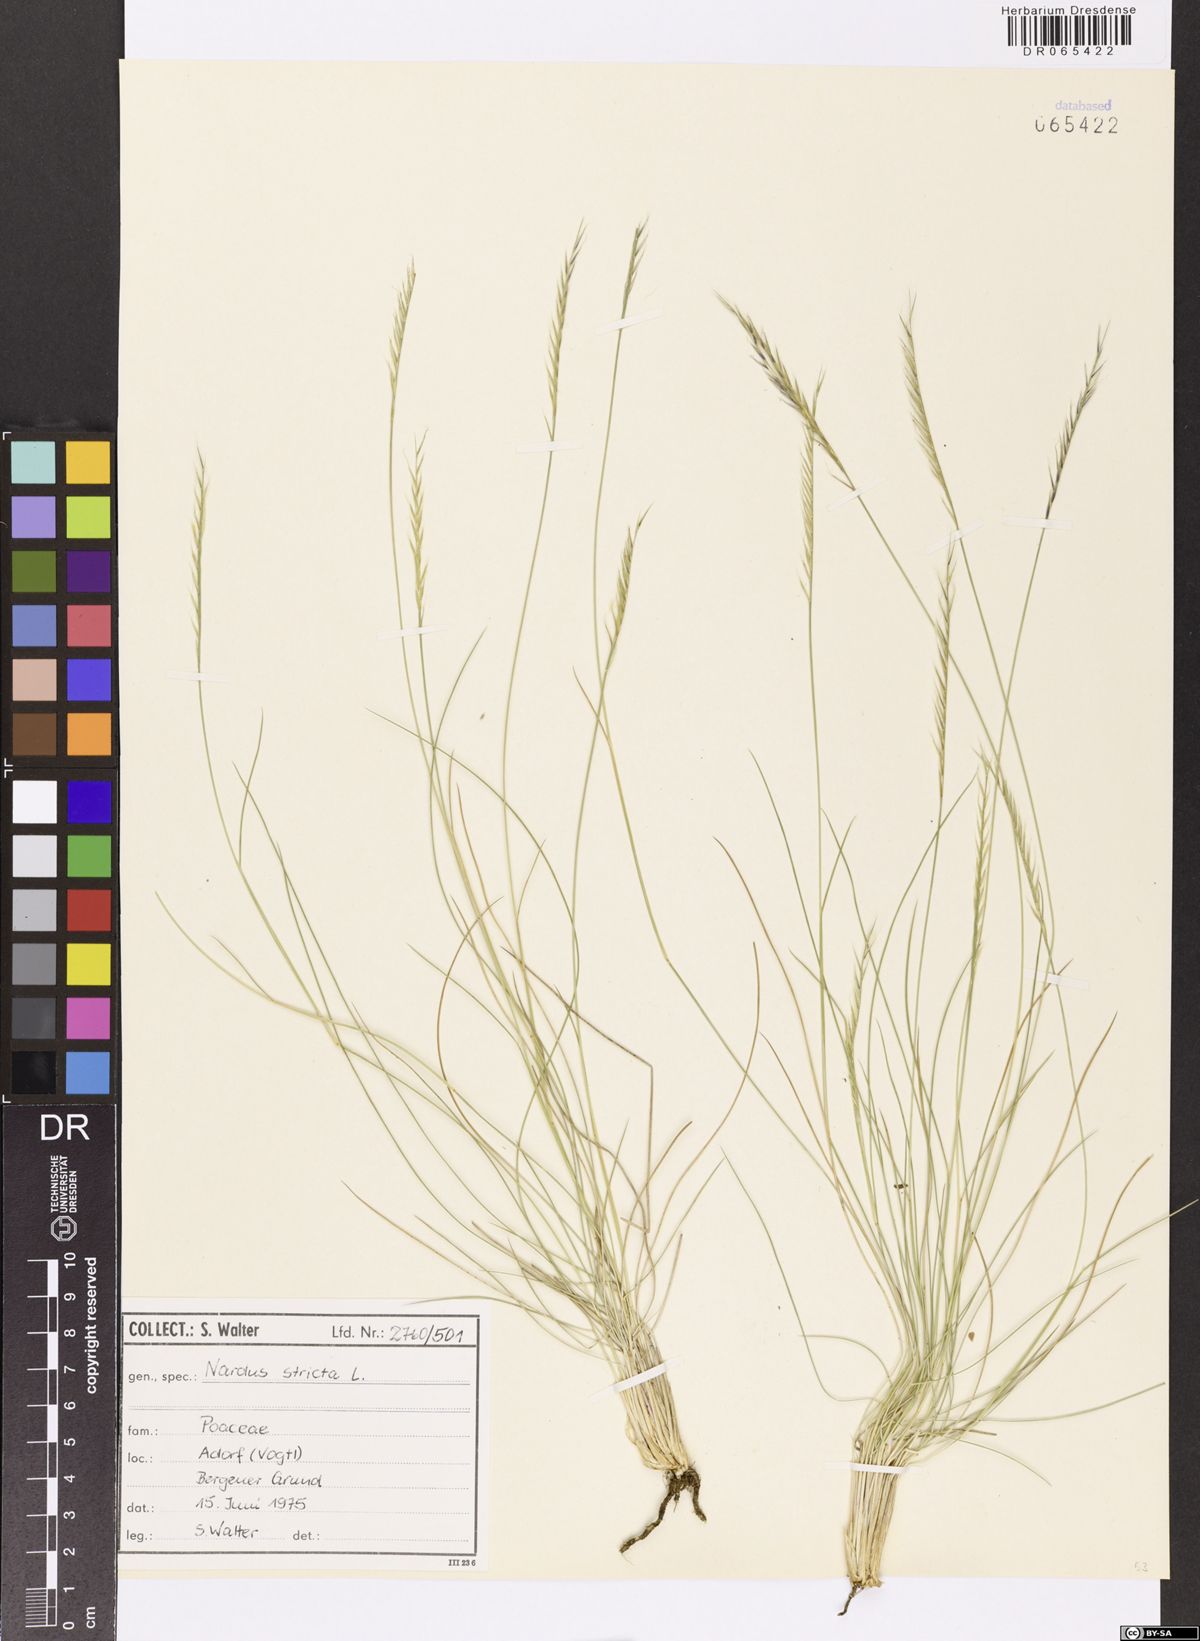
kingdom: Plantae
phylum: Tracheophyta
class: Liliopsida
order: Poales
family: Poaceae
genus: Nardus
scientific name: Nardus stricta
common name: Mat-grass
